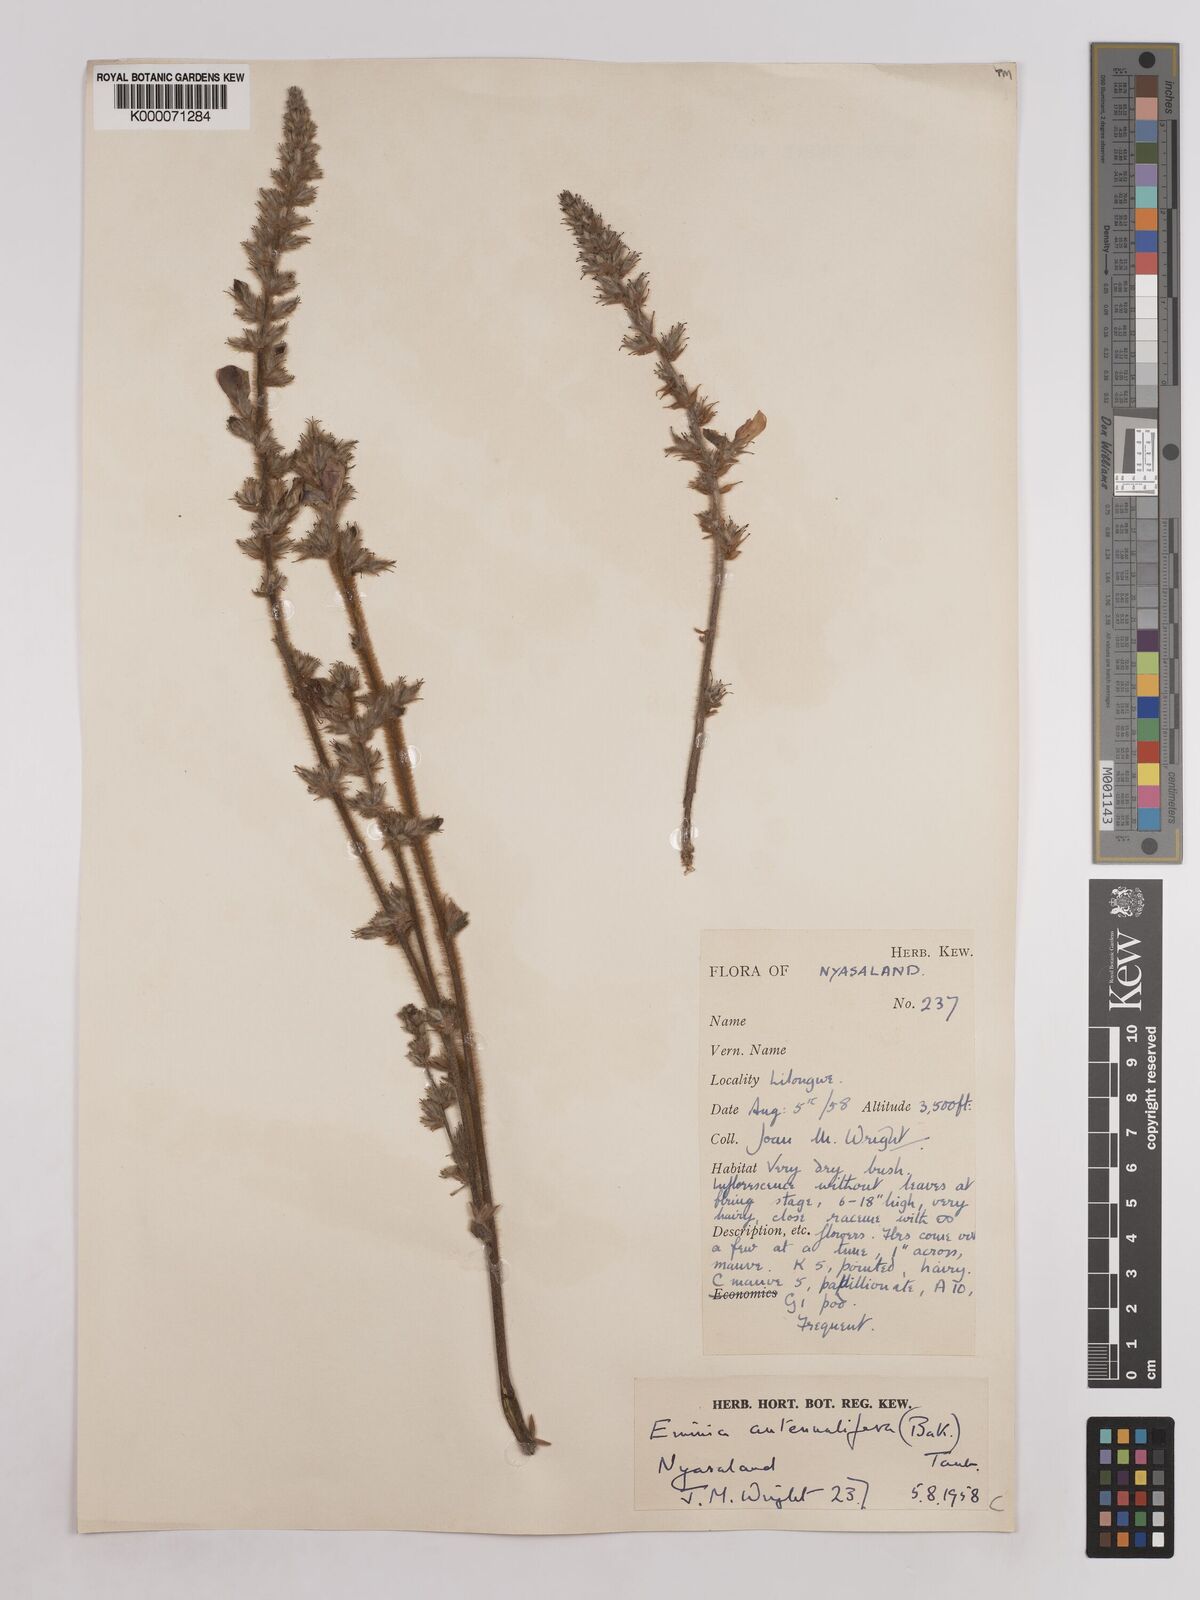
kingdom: Plantae
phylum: Tracheophyta
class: Magnoliopsida
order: Fabales
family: Fabaceae
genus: Eminia
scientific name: Eminia antennulifera
